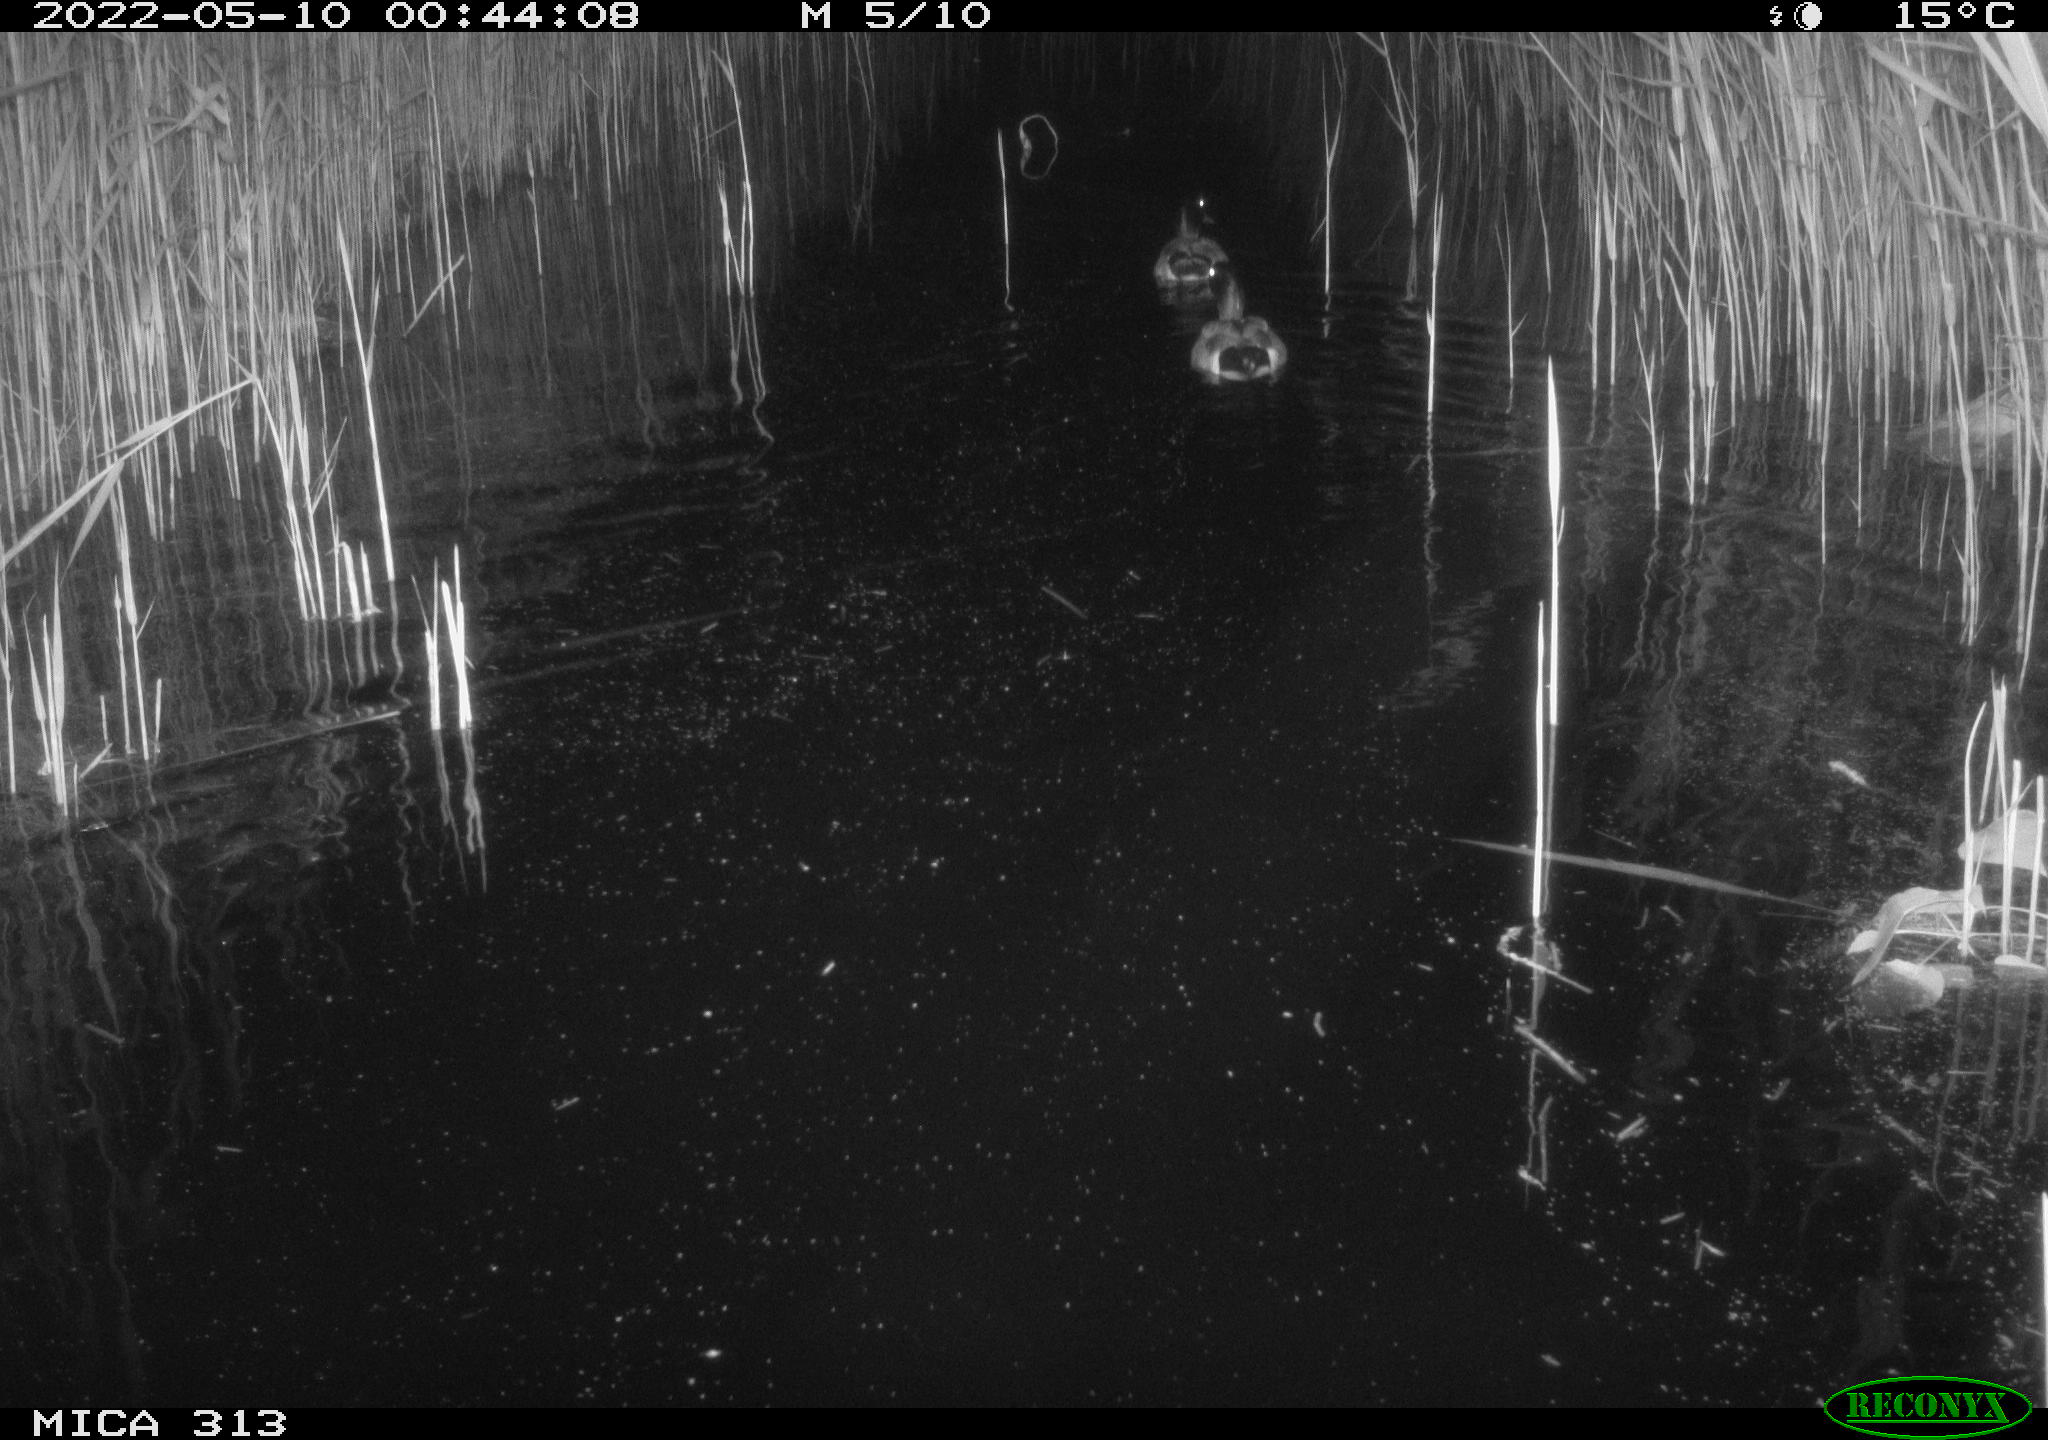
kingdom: Animalia
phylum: Chordata
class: Aves
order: Anseriformes
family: Anatidae
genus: Anas
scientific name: Anas platyrhynchos
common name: Mallard
